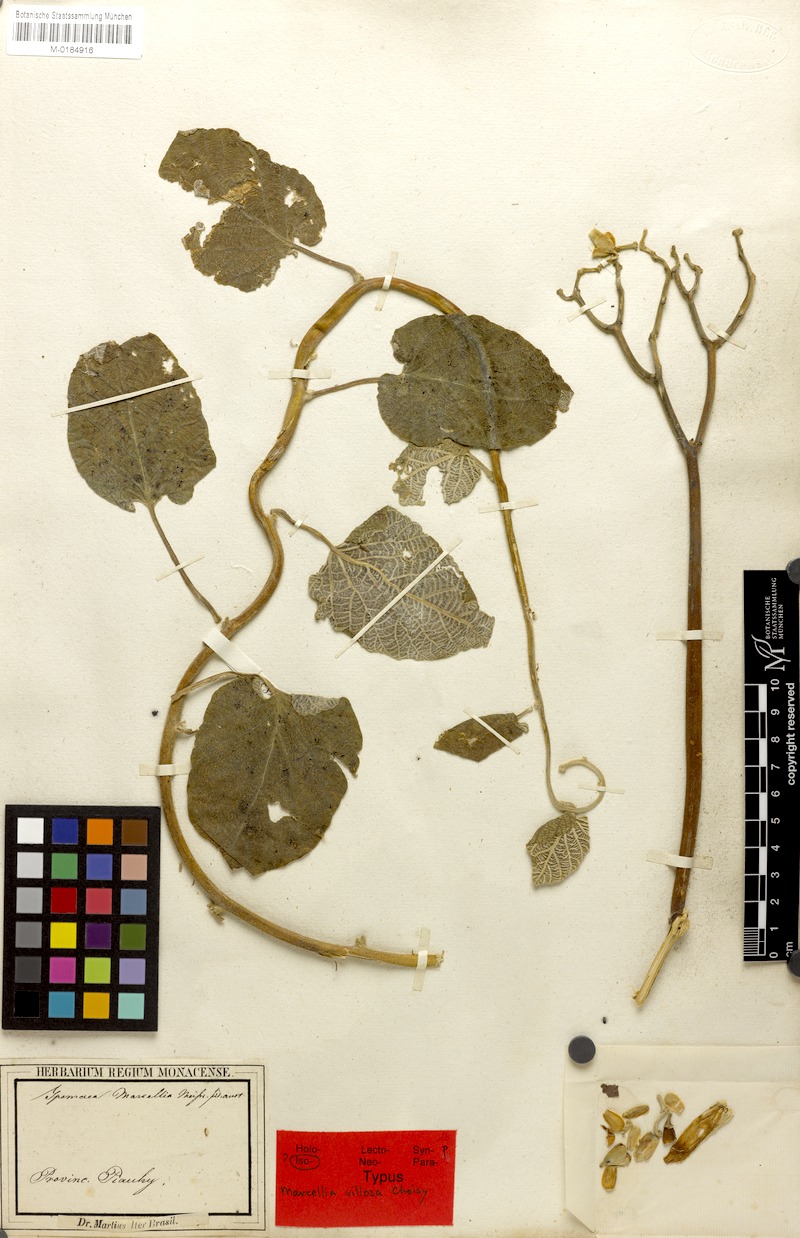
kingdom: Plantae
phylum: Tracheophyta
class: Magnoliopsida
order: Solanales
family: Convolvulaceae
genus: Ipomoea
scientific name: Ipomoea argentea
